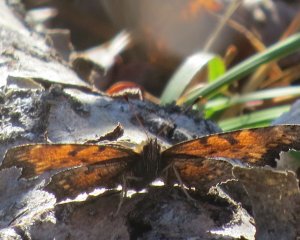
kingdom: Animalia
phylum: Arthropoda
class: Insecta
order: Lepidoptera
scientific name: Lepidoptera
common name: Butterflies
